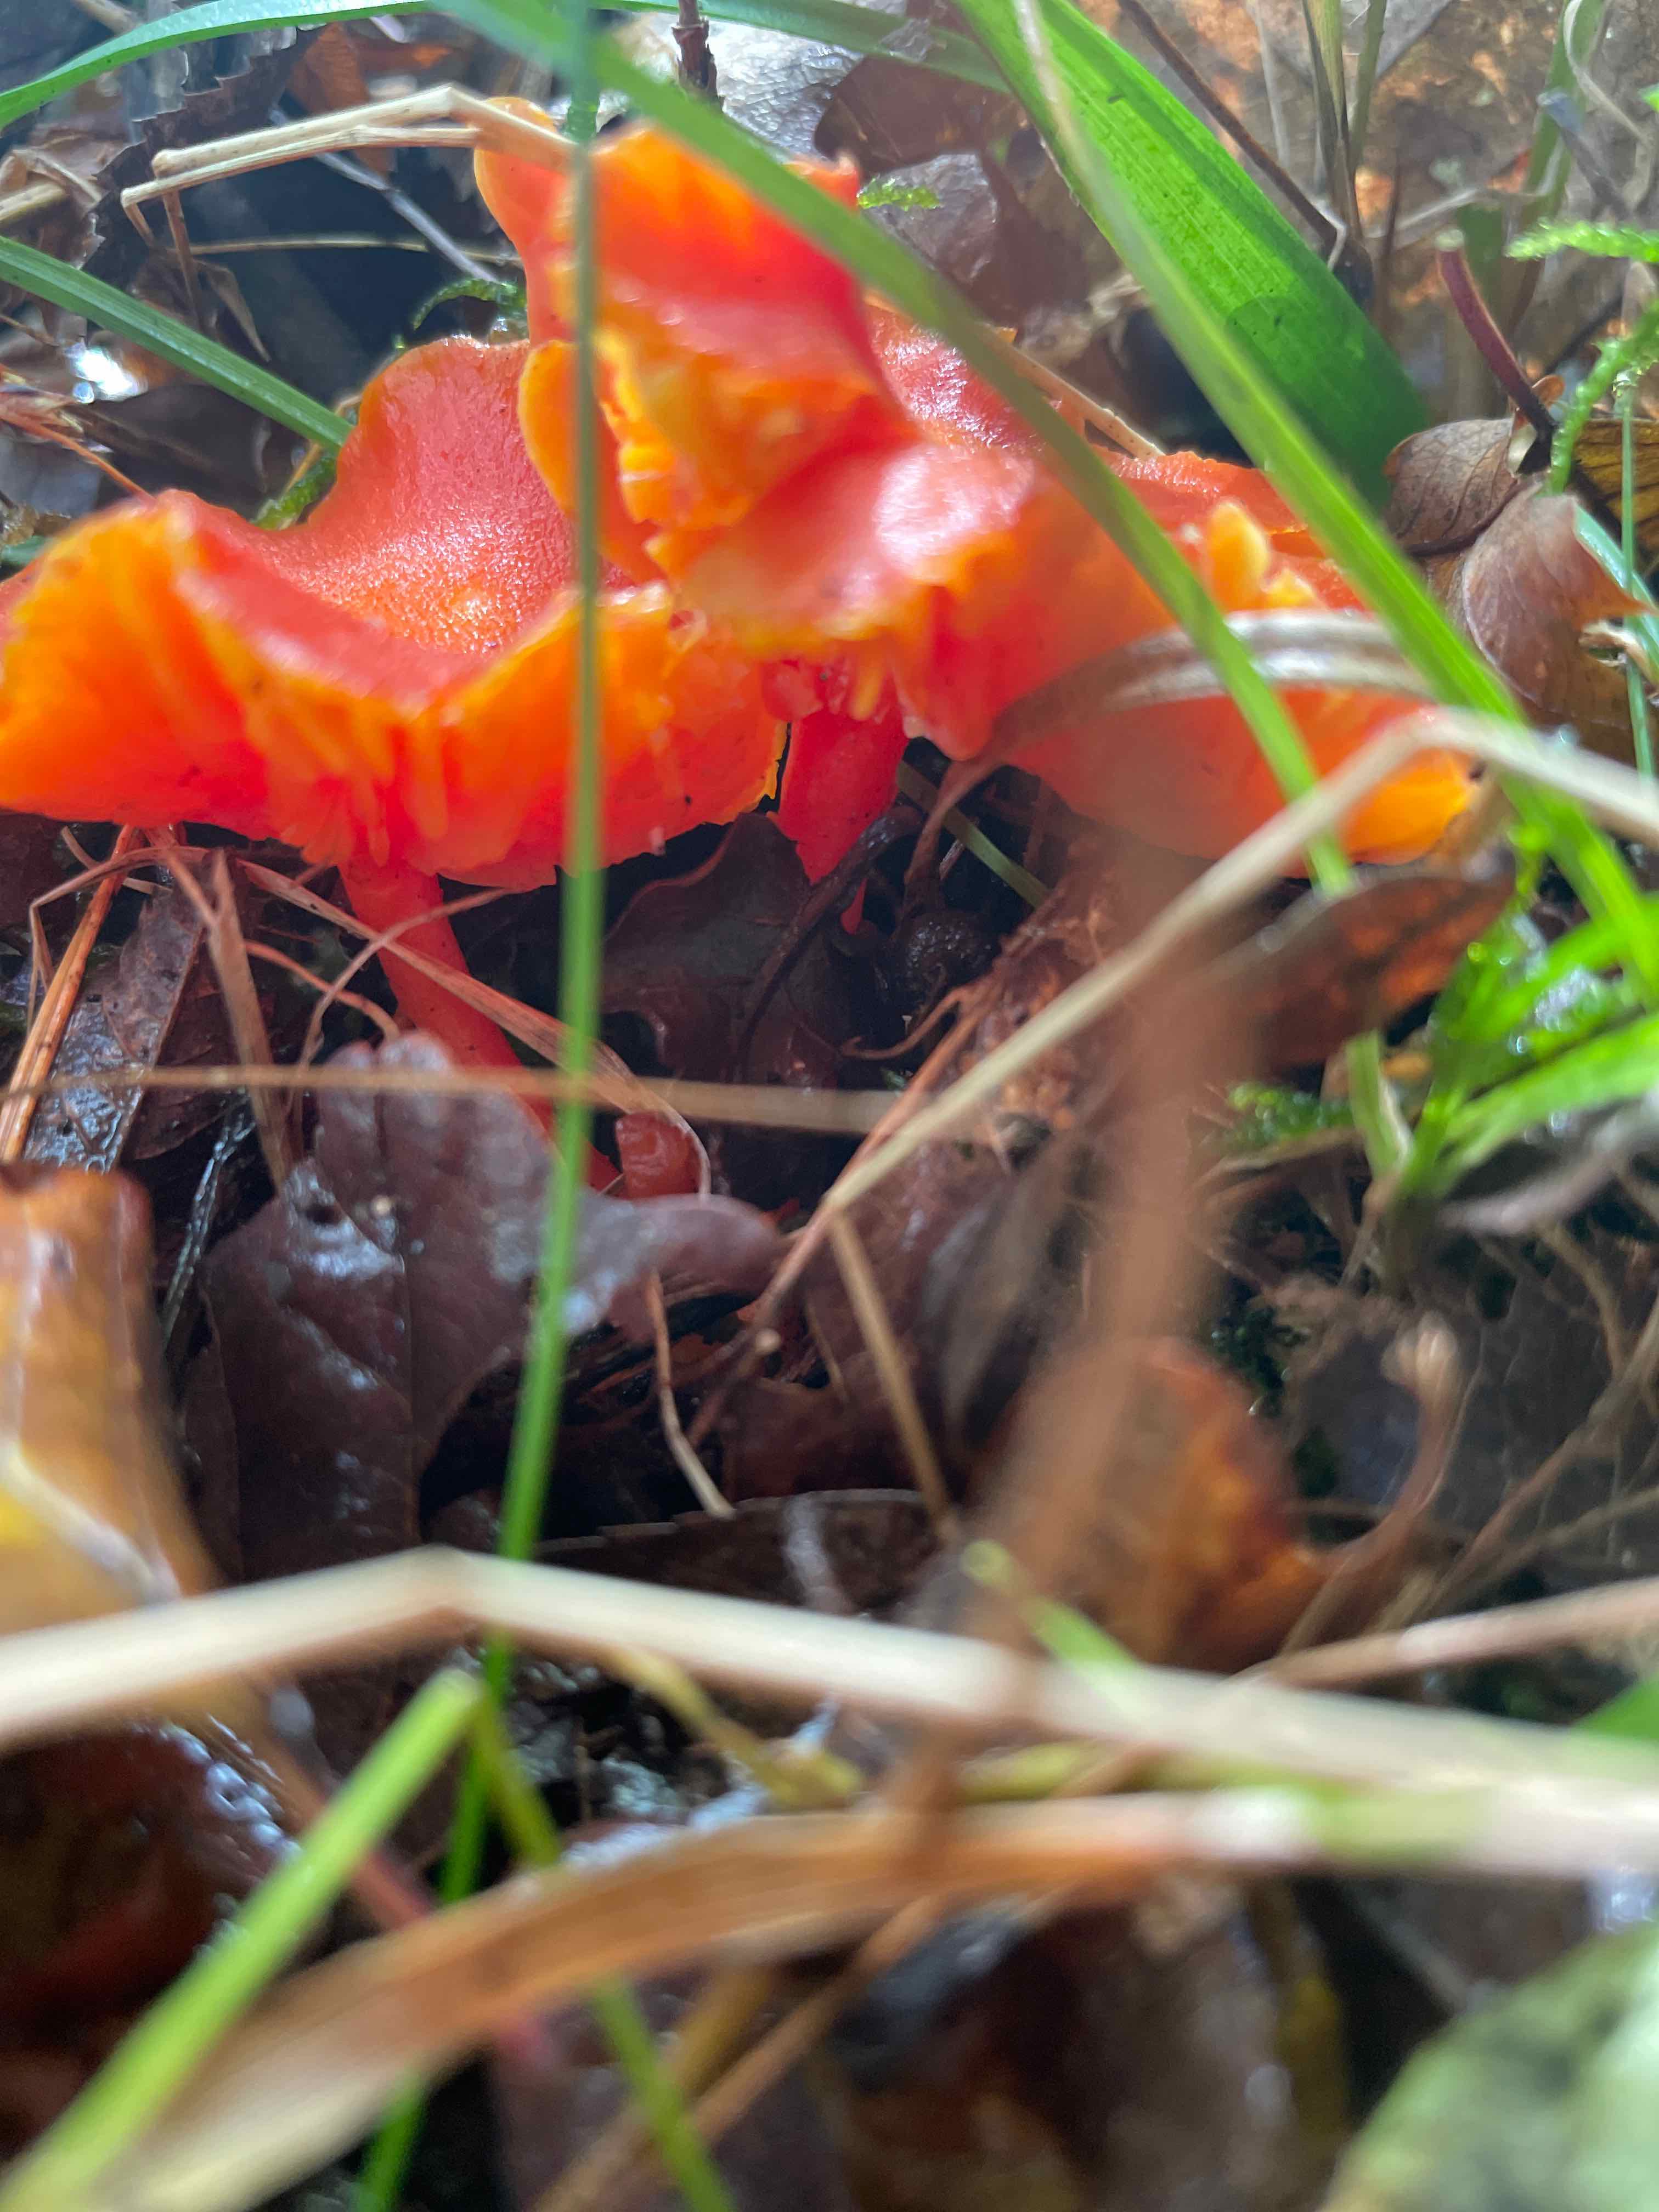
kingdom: Fungi
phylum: Basidiomycota
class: Agaricomycetes
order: Agaricales
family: Hygrophoraceae
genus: Hygrocybe
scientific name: Hygrocybe
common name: vokshat
